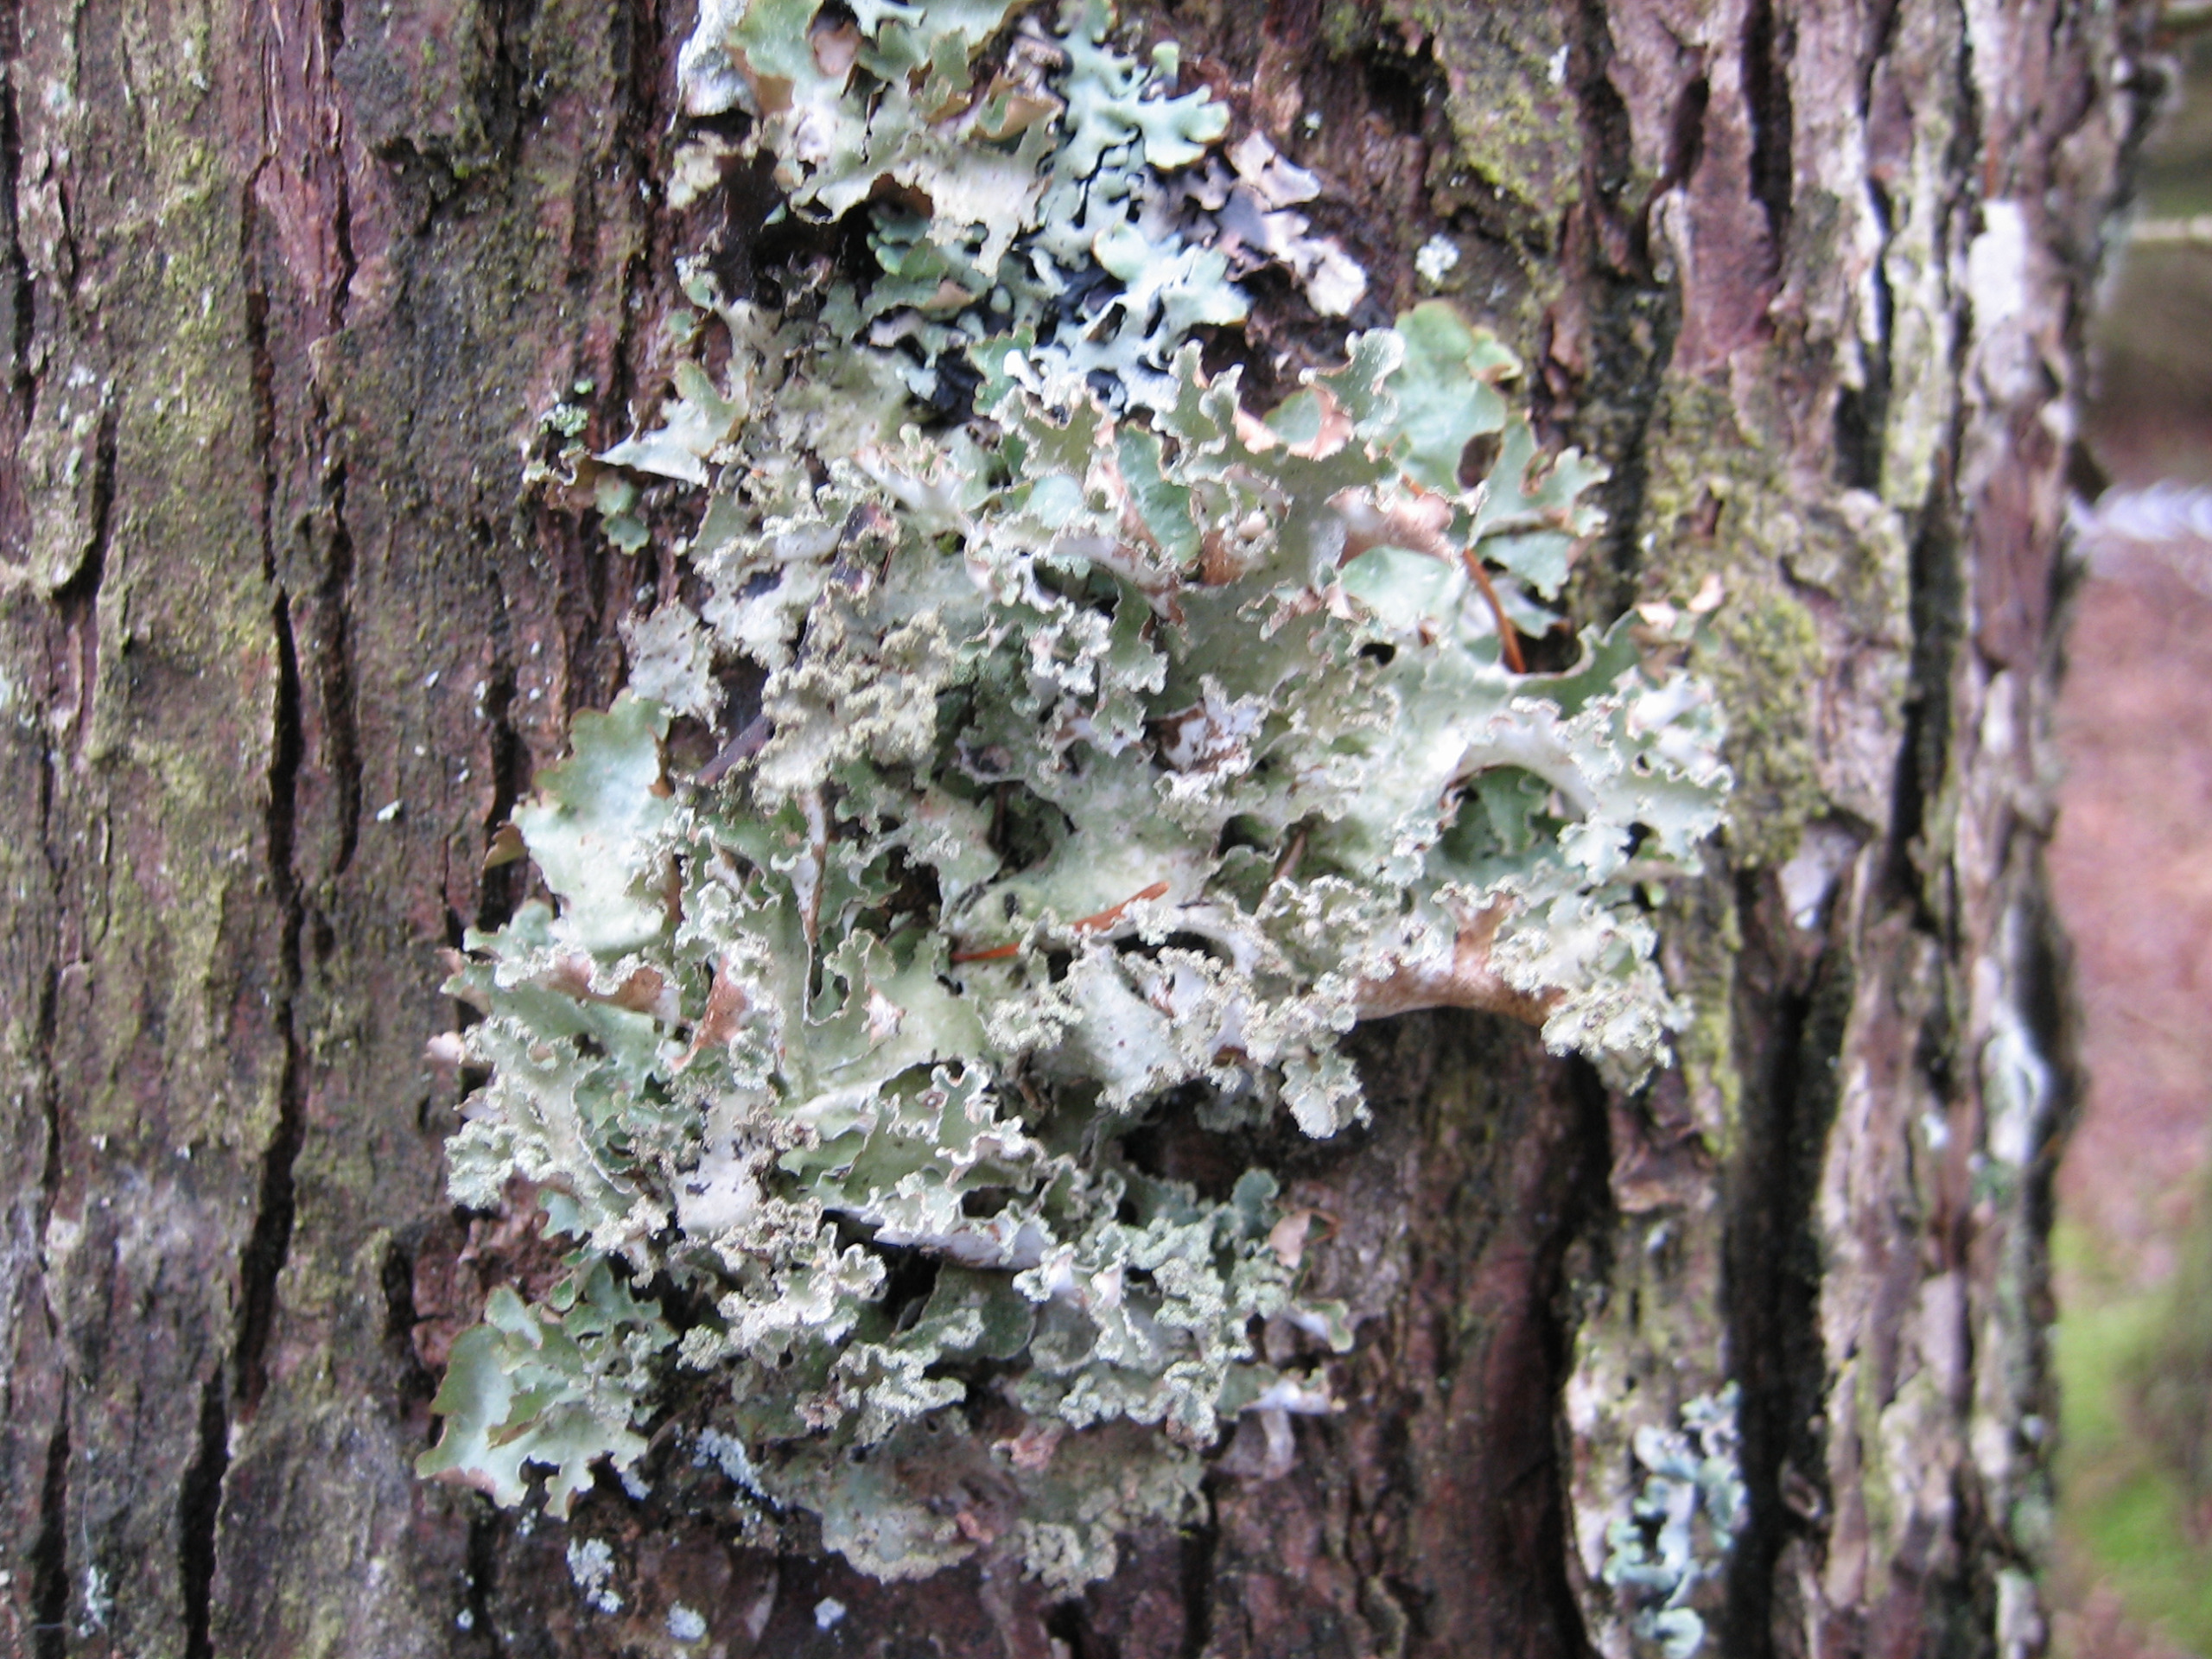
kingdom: Fungi
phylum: Ascomycota
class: Lecanoromycetes
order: Lecanorales
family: Parmeliaceae
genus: Platismatia
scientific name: Platismatia glauca
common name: Blågrå papirlav
